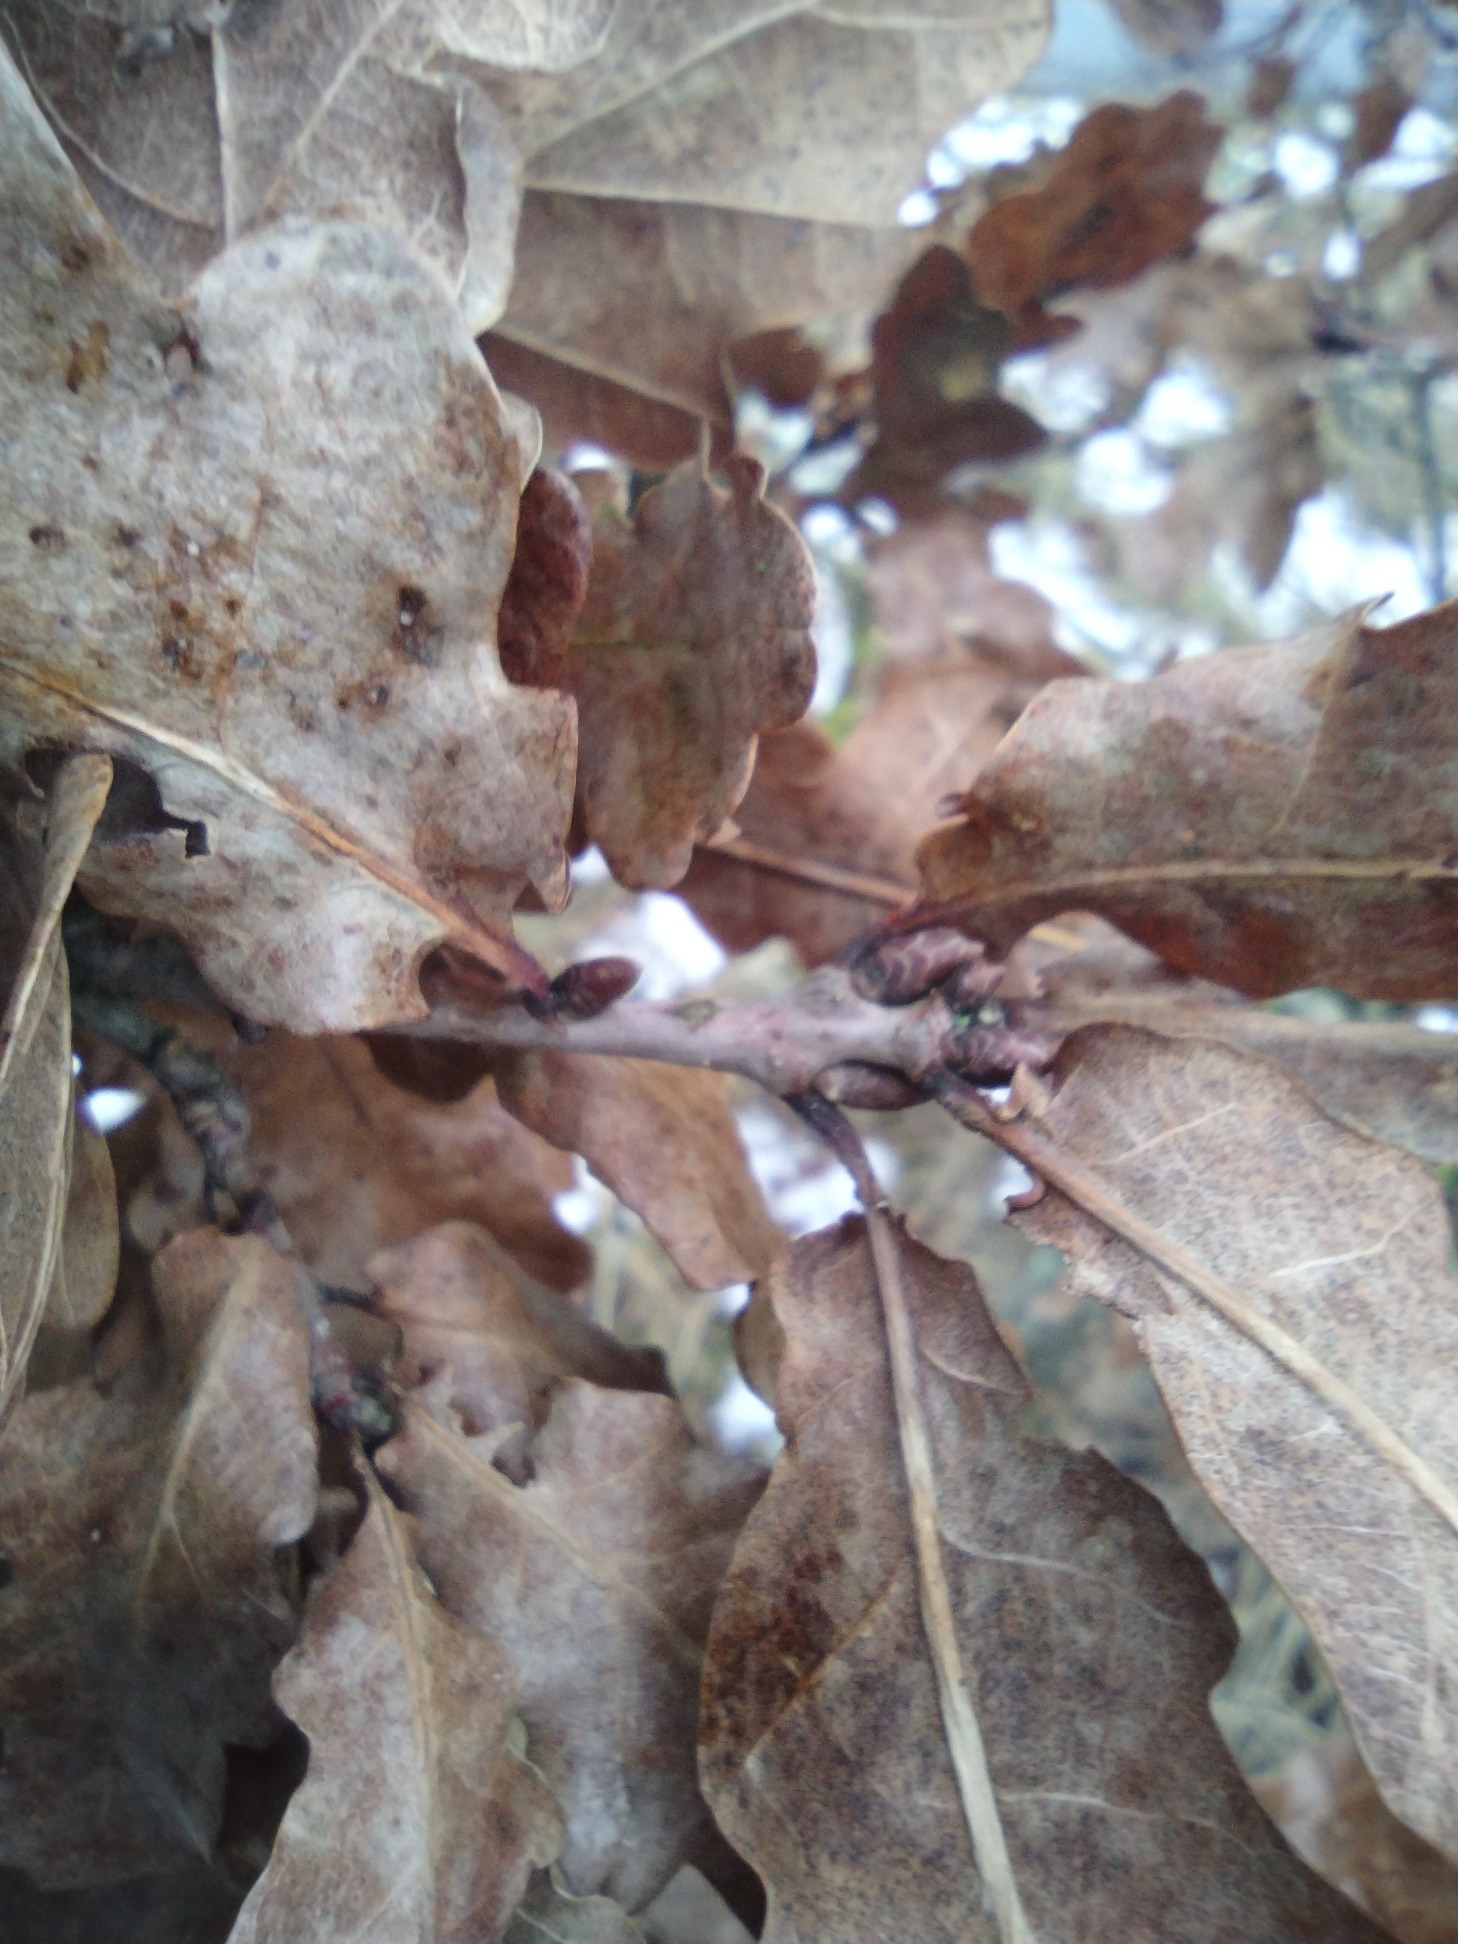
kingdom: Plantae
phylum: Tracheophyta
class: Magnoliopsida
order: Fagales
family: Fagaceae
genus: Quercus
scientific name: Quercus robur
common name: Stilk-eg/almindelig eg
